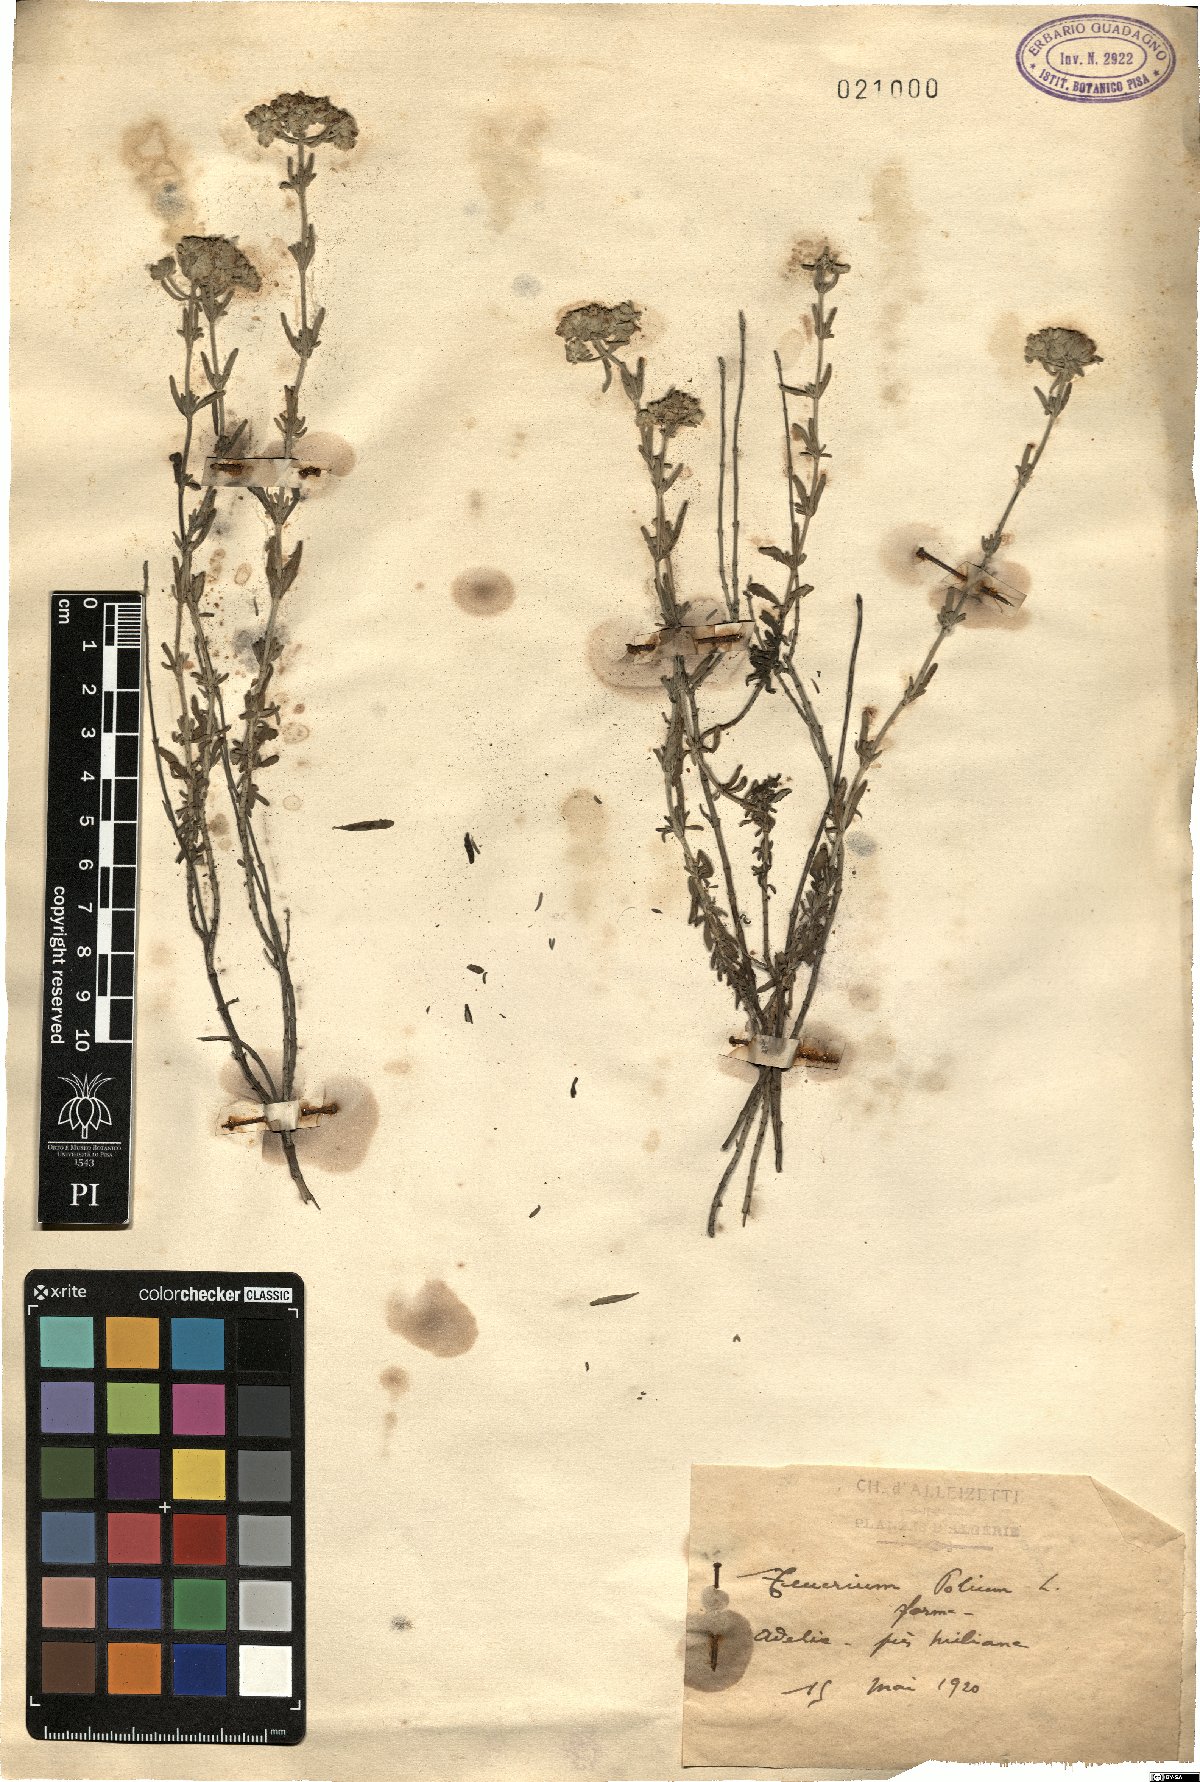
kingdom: Plantae
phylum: Tracheophyta
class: Magnoliopsida
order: Lamiales
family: Lamiaceae
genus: Teucrium
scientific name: Teucrium polium
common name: Poley
